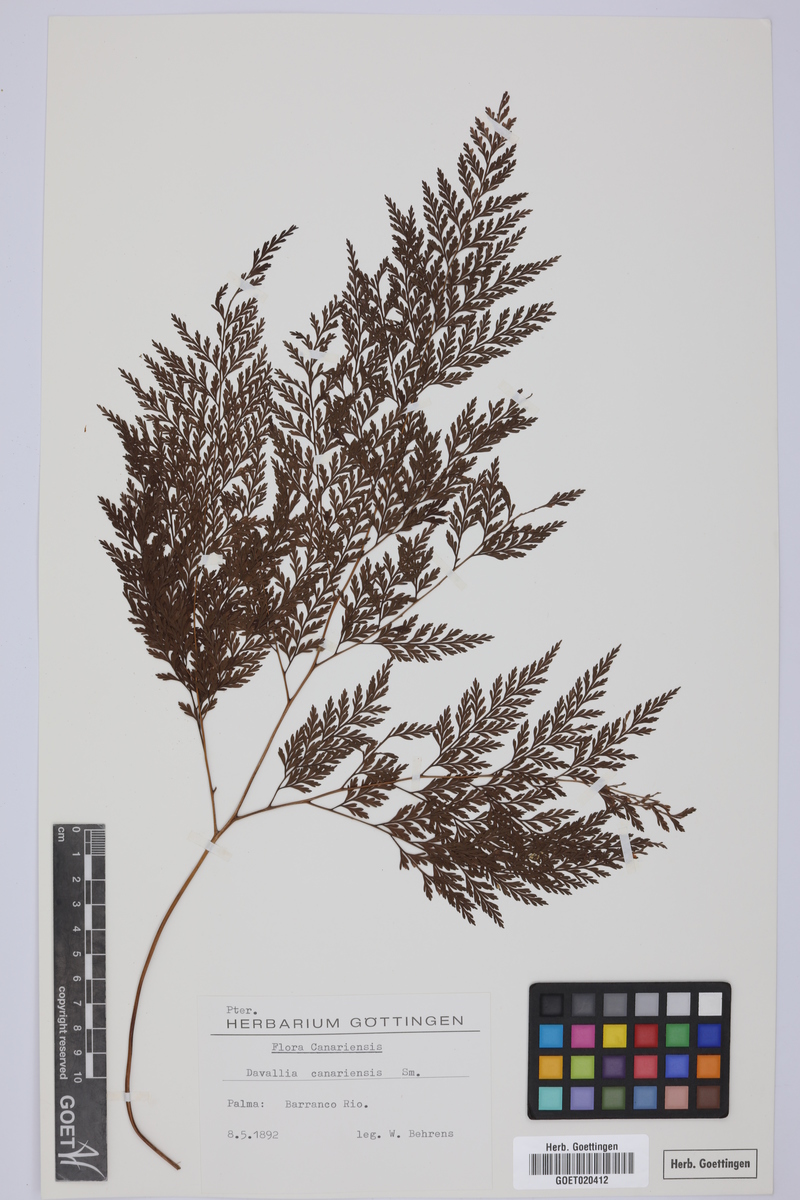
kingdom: Plantae
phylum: Tracheophyta
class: Polypodiopsida
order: Polypodiales
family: Davalliaceae
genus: Davallia
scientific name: Davallia canariensis
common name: Hare's-foot fern
